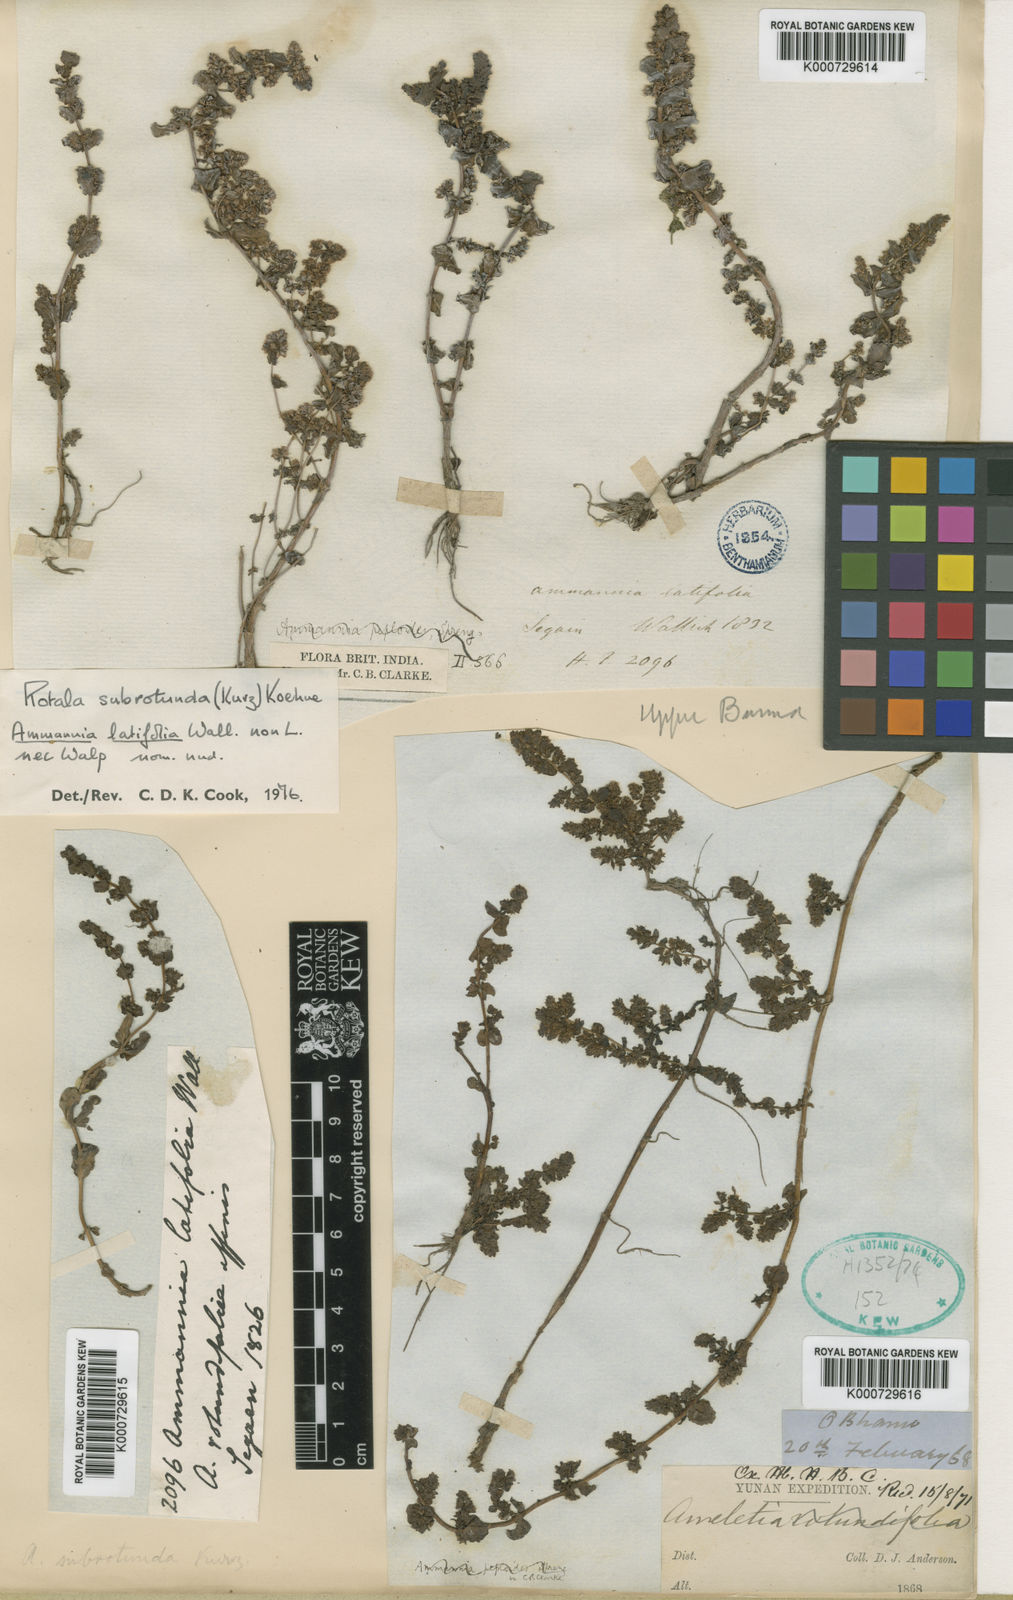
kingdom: Plantae
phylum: Tracheophyta
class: Magnoliopsida
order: Myrtales
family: Lythraceae
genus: Rotala
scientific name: Rotala subrotunda
